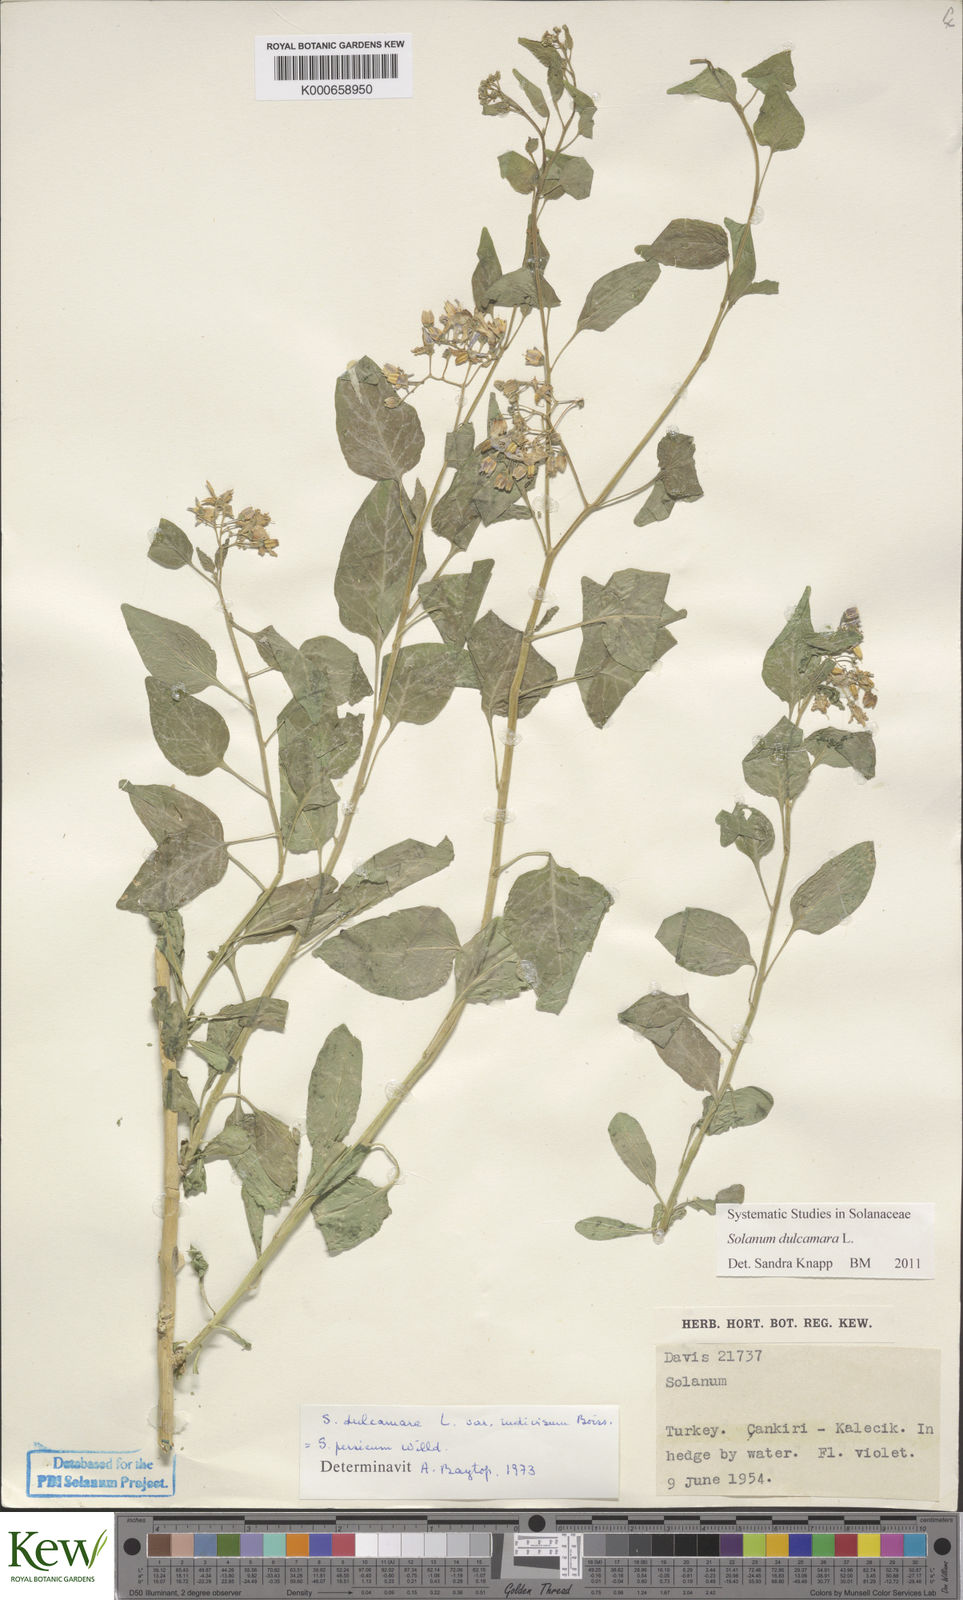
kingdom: Plantae
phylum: Tracheophyta
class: Magnoliopsida
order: Solanales
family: Solanaceae
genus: Solanum
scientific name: Solanum dulcamara
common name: Climbing nightshade
